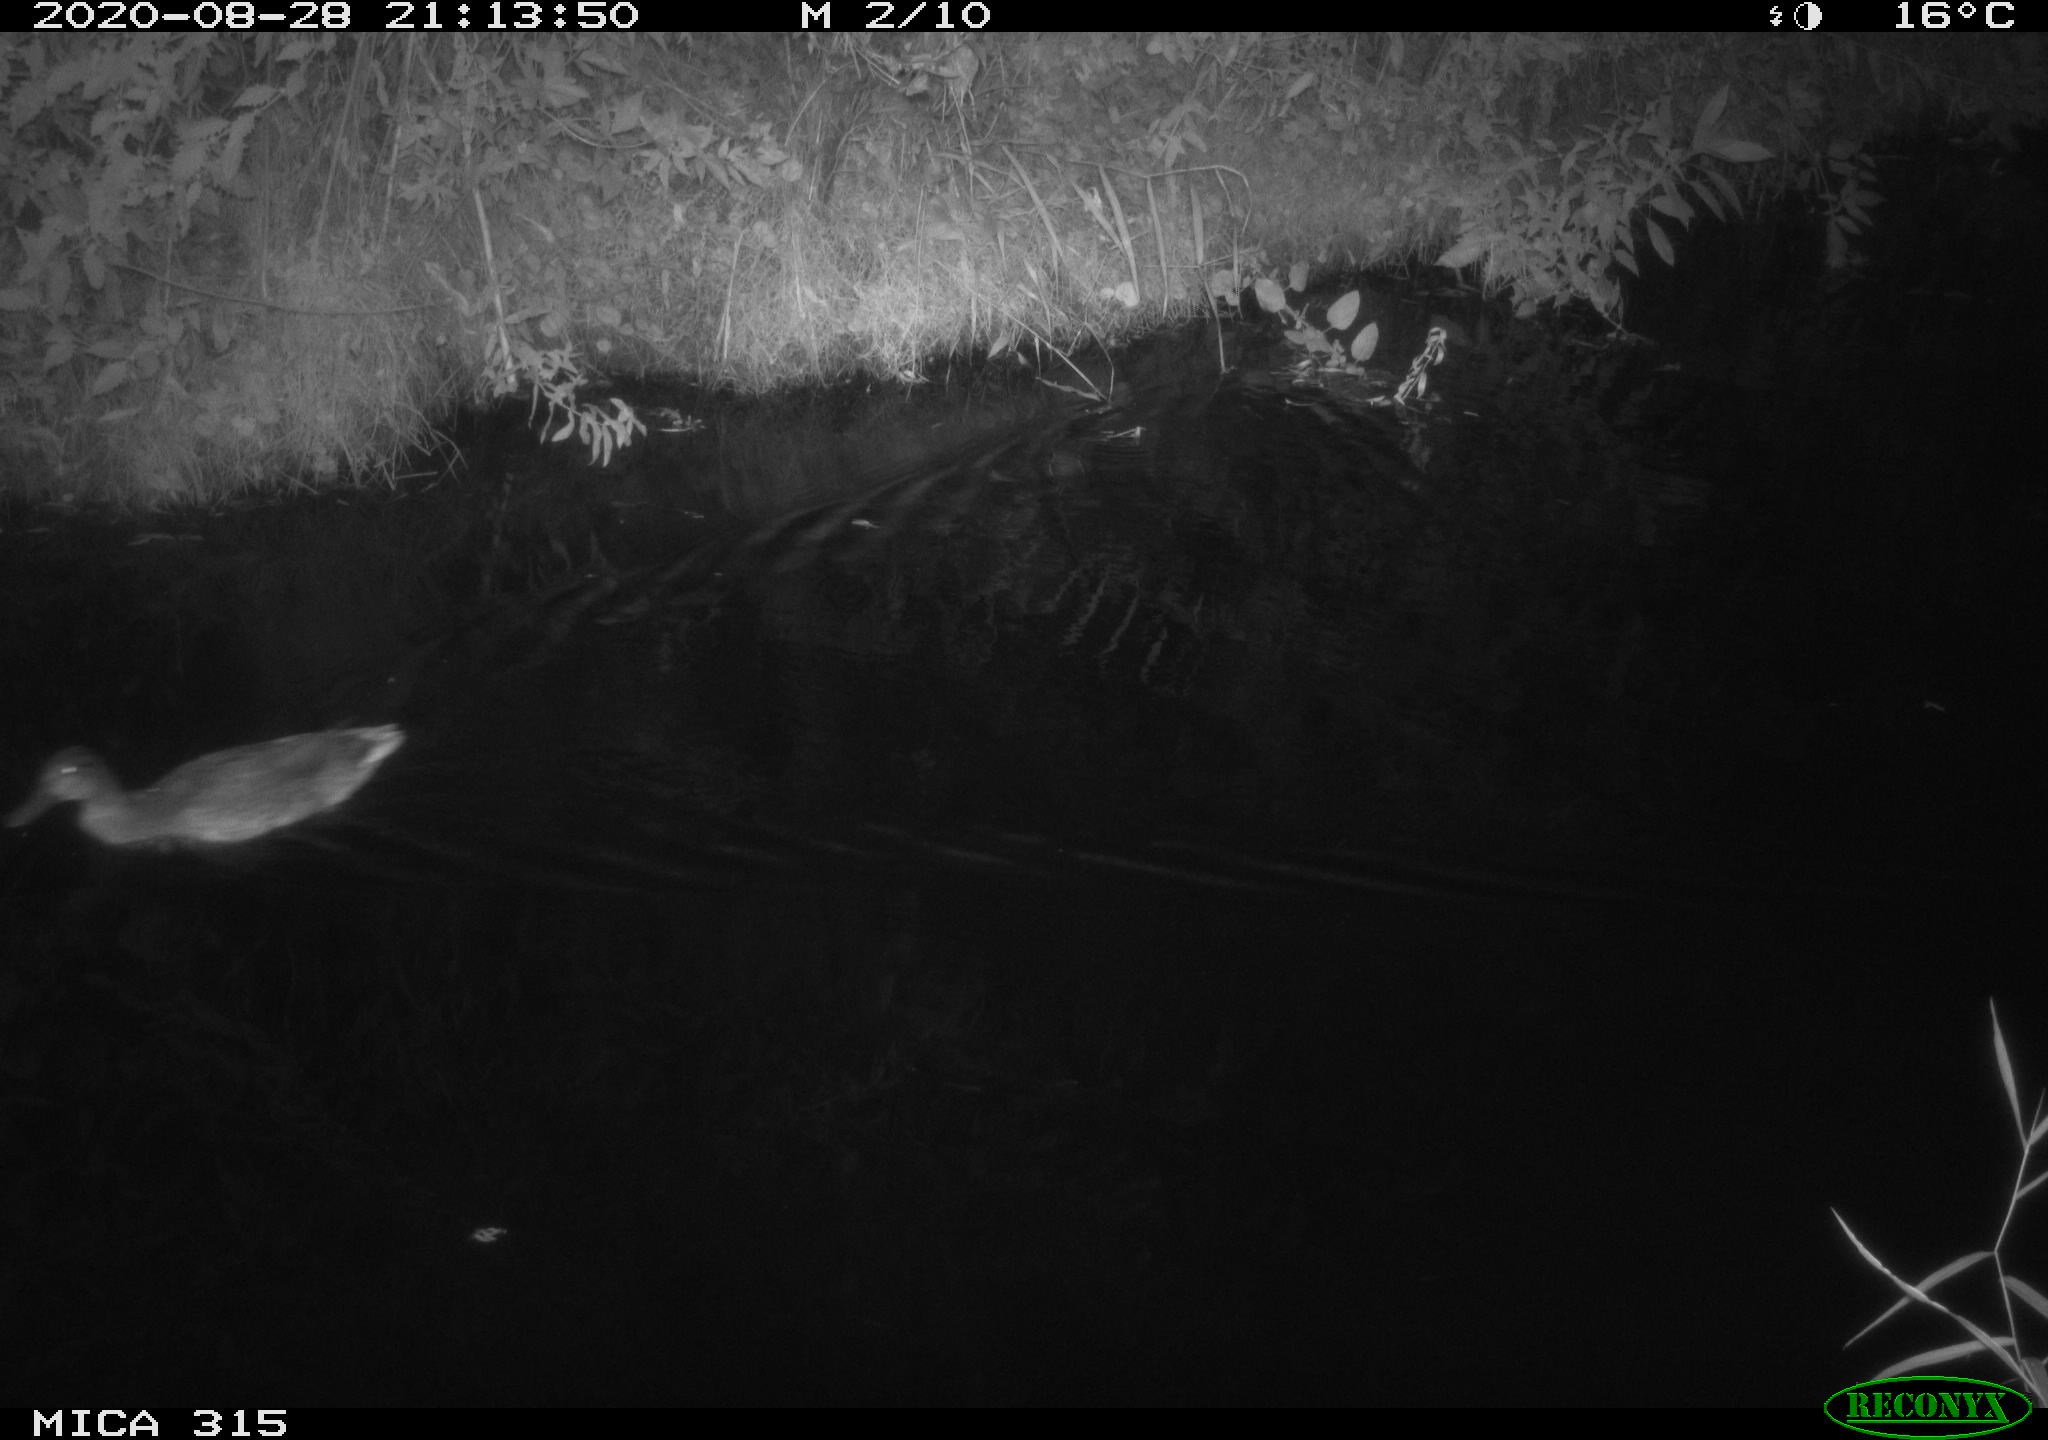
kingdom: Animalia
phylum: Chordata
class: Aves
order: Anseriformes
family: Anatidae
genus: Anas
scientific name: Anas platyrhynchos
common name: Mallard
